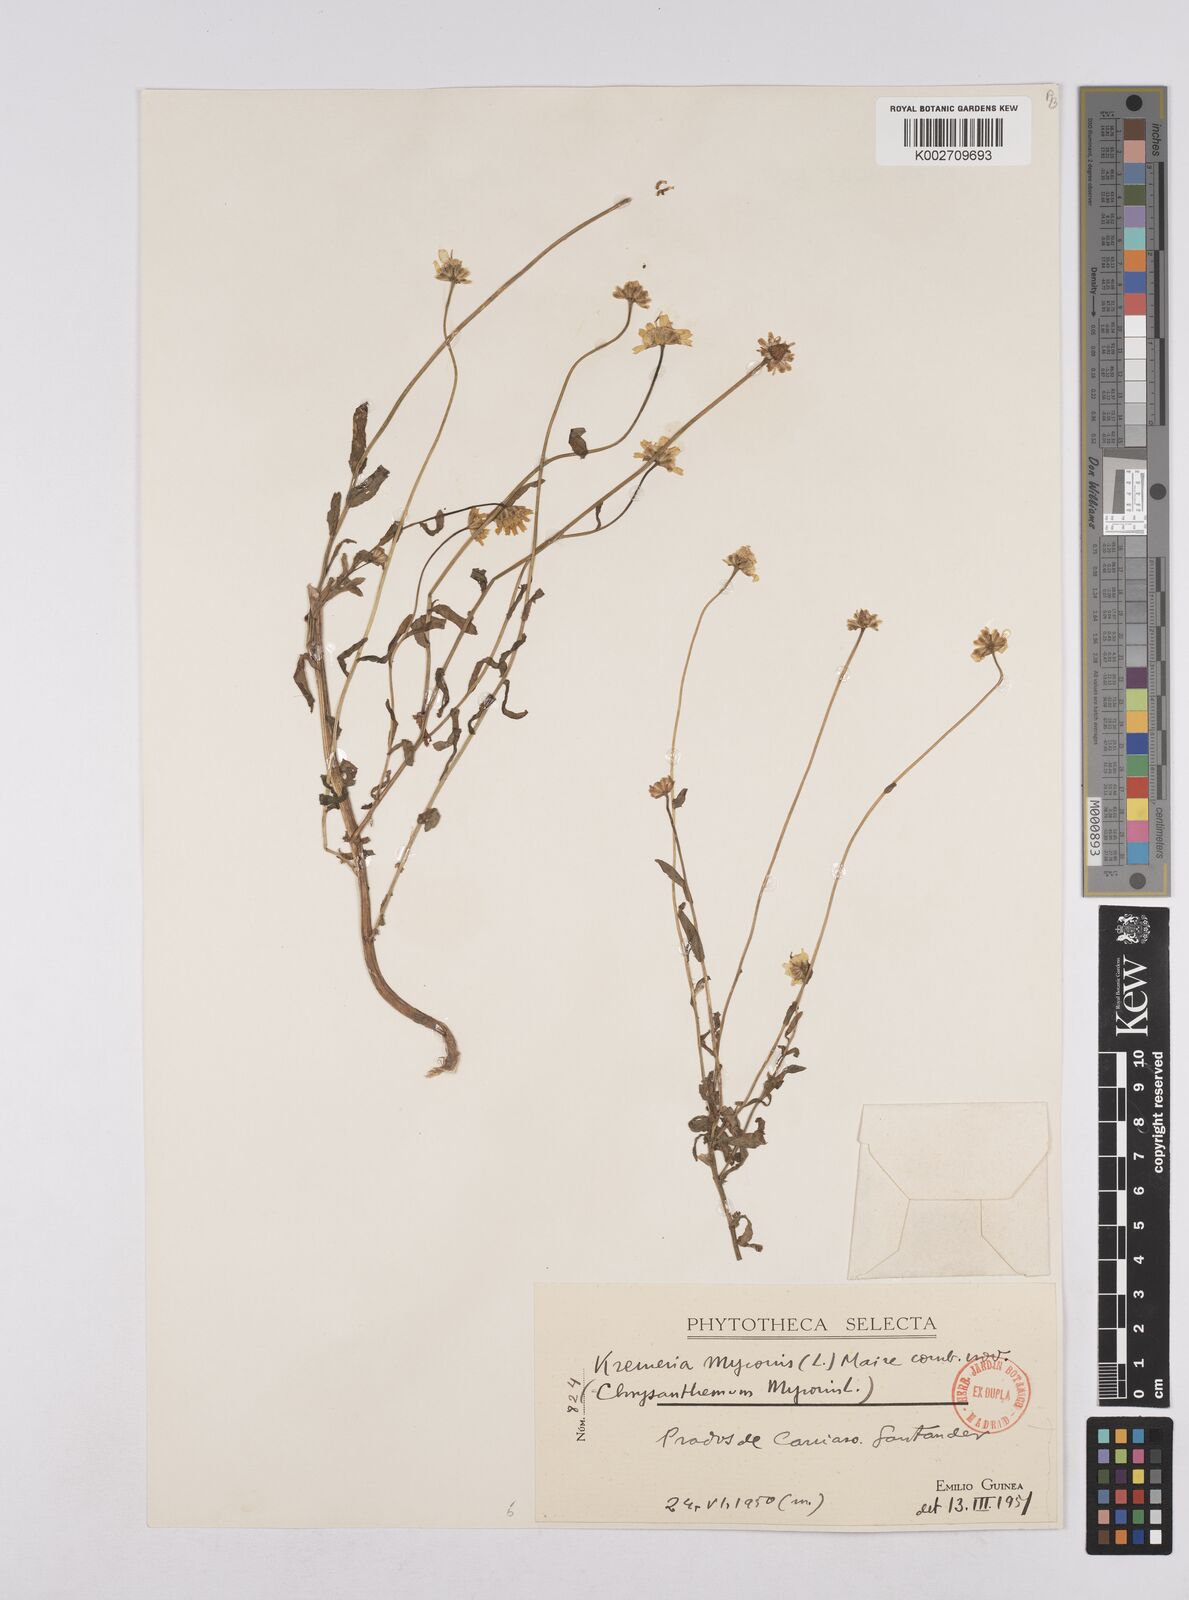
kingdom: Plantae
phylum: Tracheophyta
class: Magnoliopsida
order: Asterales
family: Asteraceae
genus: Coleostephus
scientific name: Coleostephus myconis
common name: Mediterranean marigold
